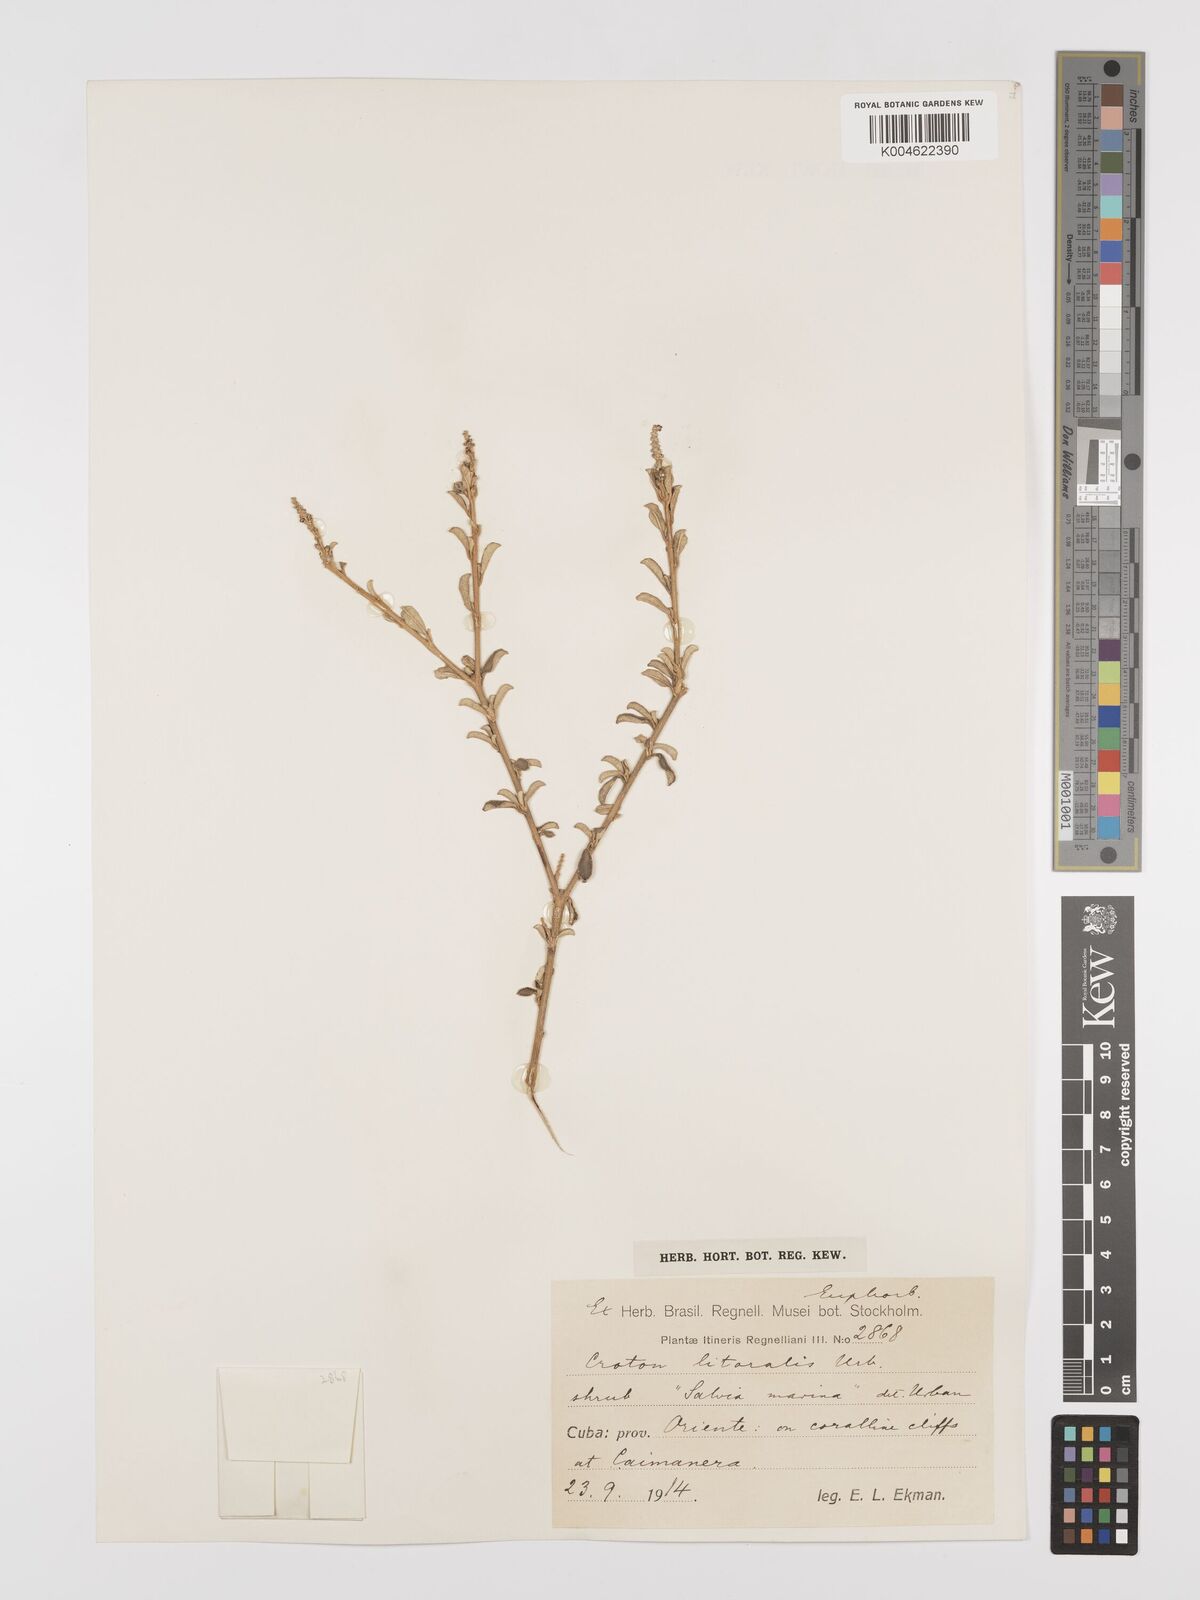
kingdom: Plantae
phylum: Tracheophyta
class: Magnoliopsida
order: Malpighiales
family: Euphorbiaceae
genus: Croton
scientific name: Croton stenophyllus
